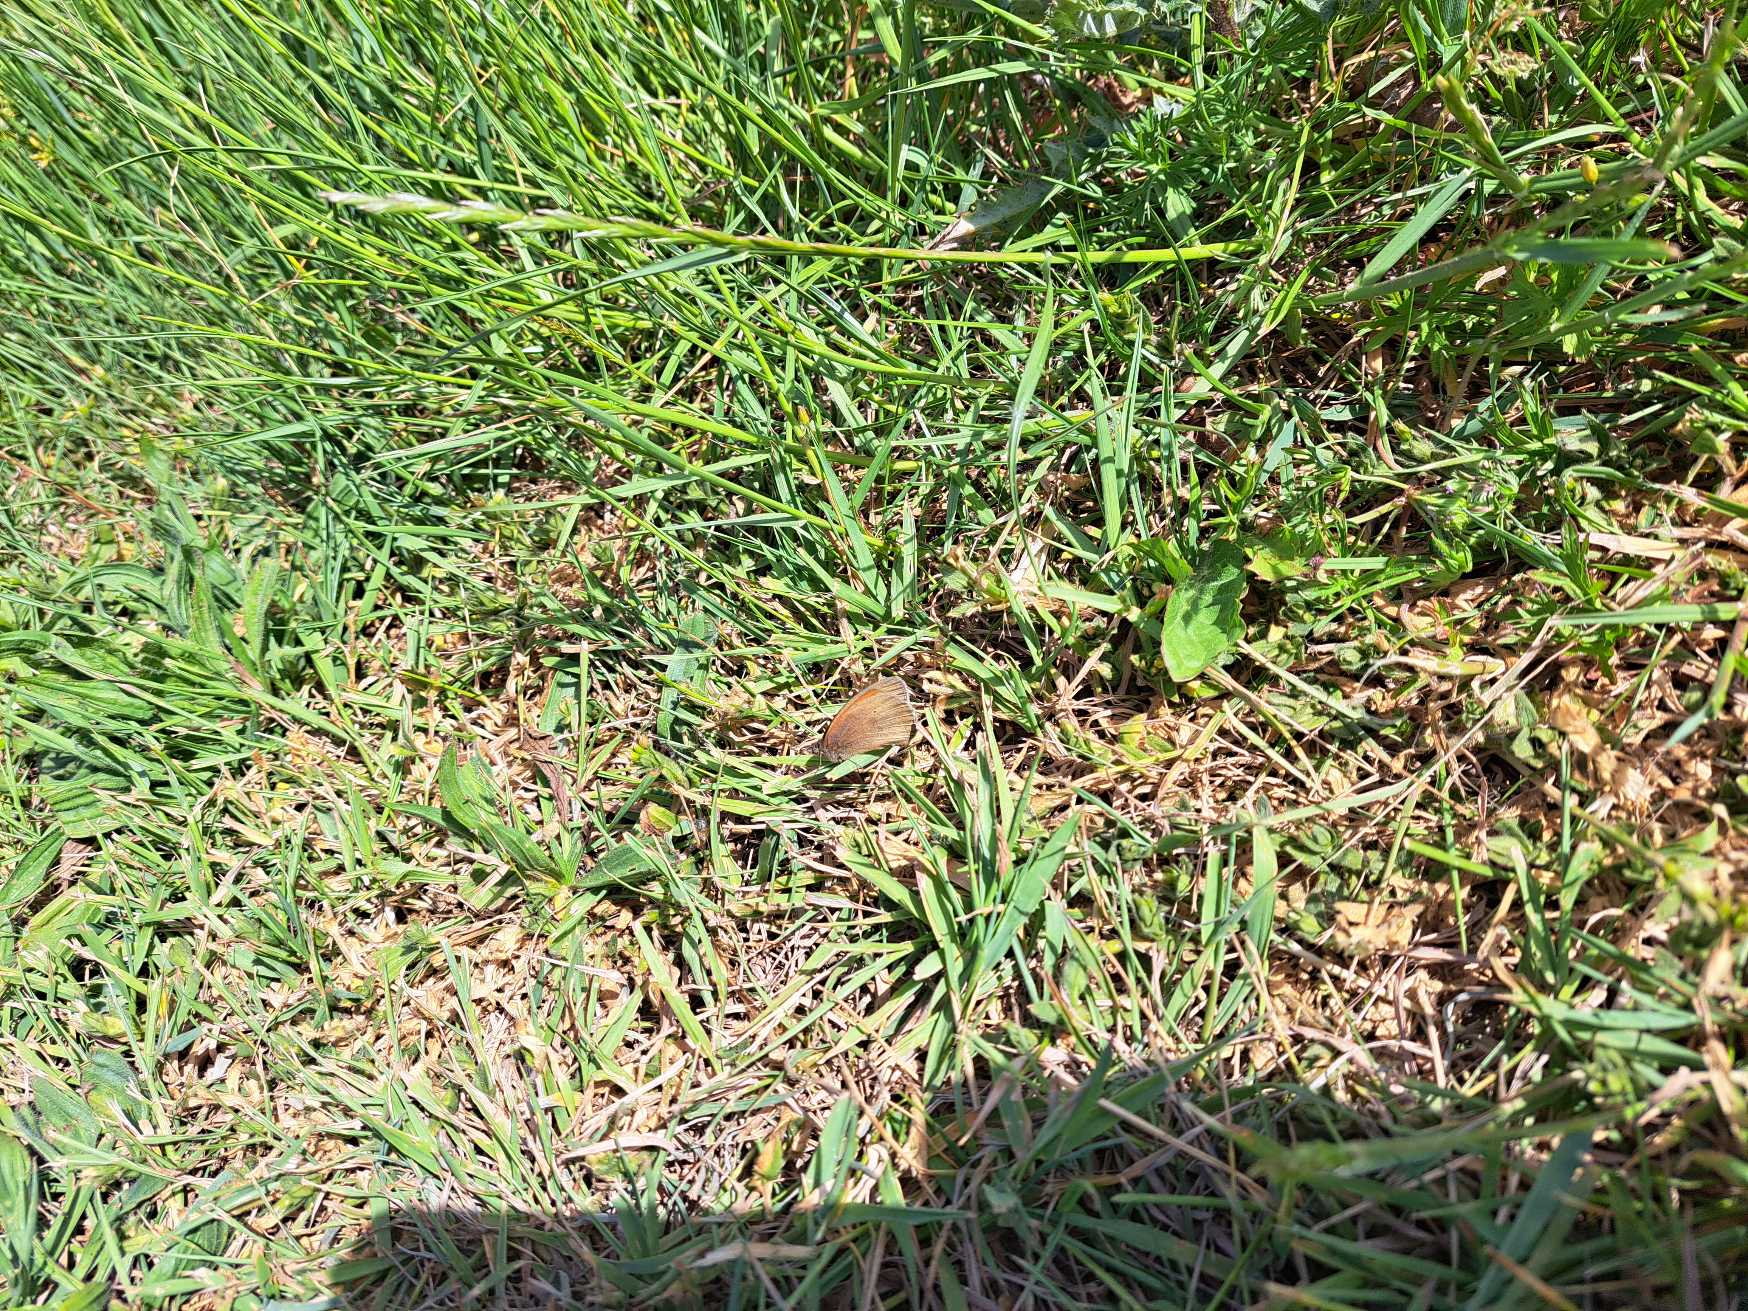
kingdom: Animalia
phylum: Arthropoda
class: Insecta
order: Lepidoptera
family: Nymphalidae
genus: Maniola
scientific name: Maniola jurtina
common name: Græsrandøje
